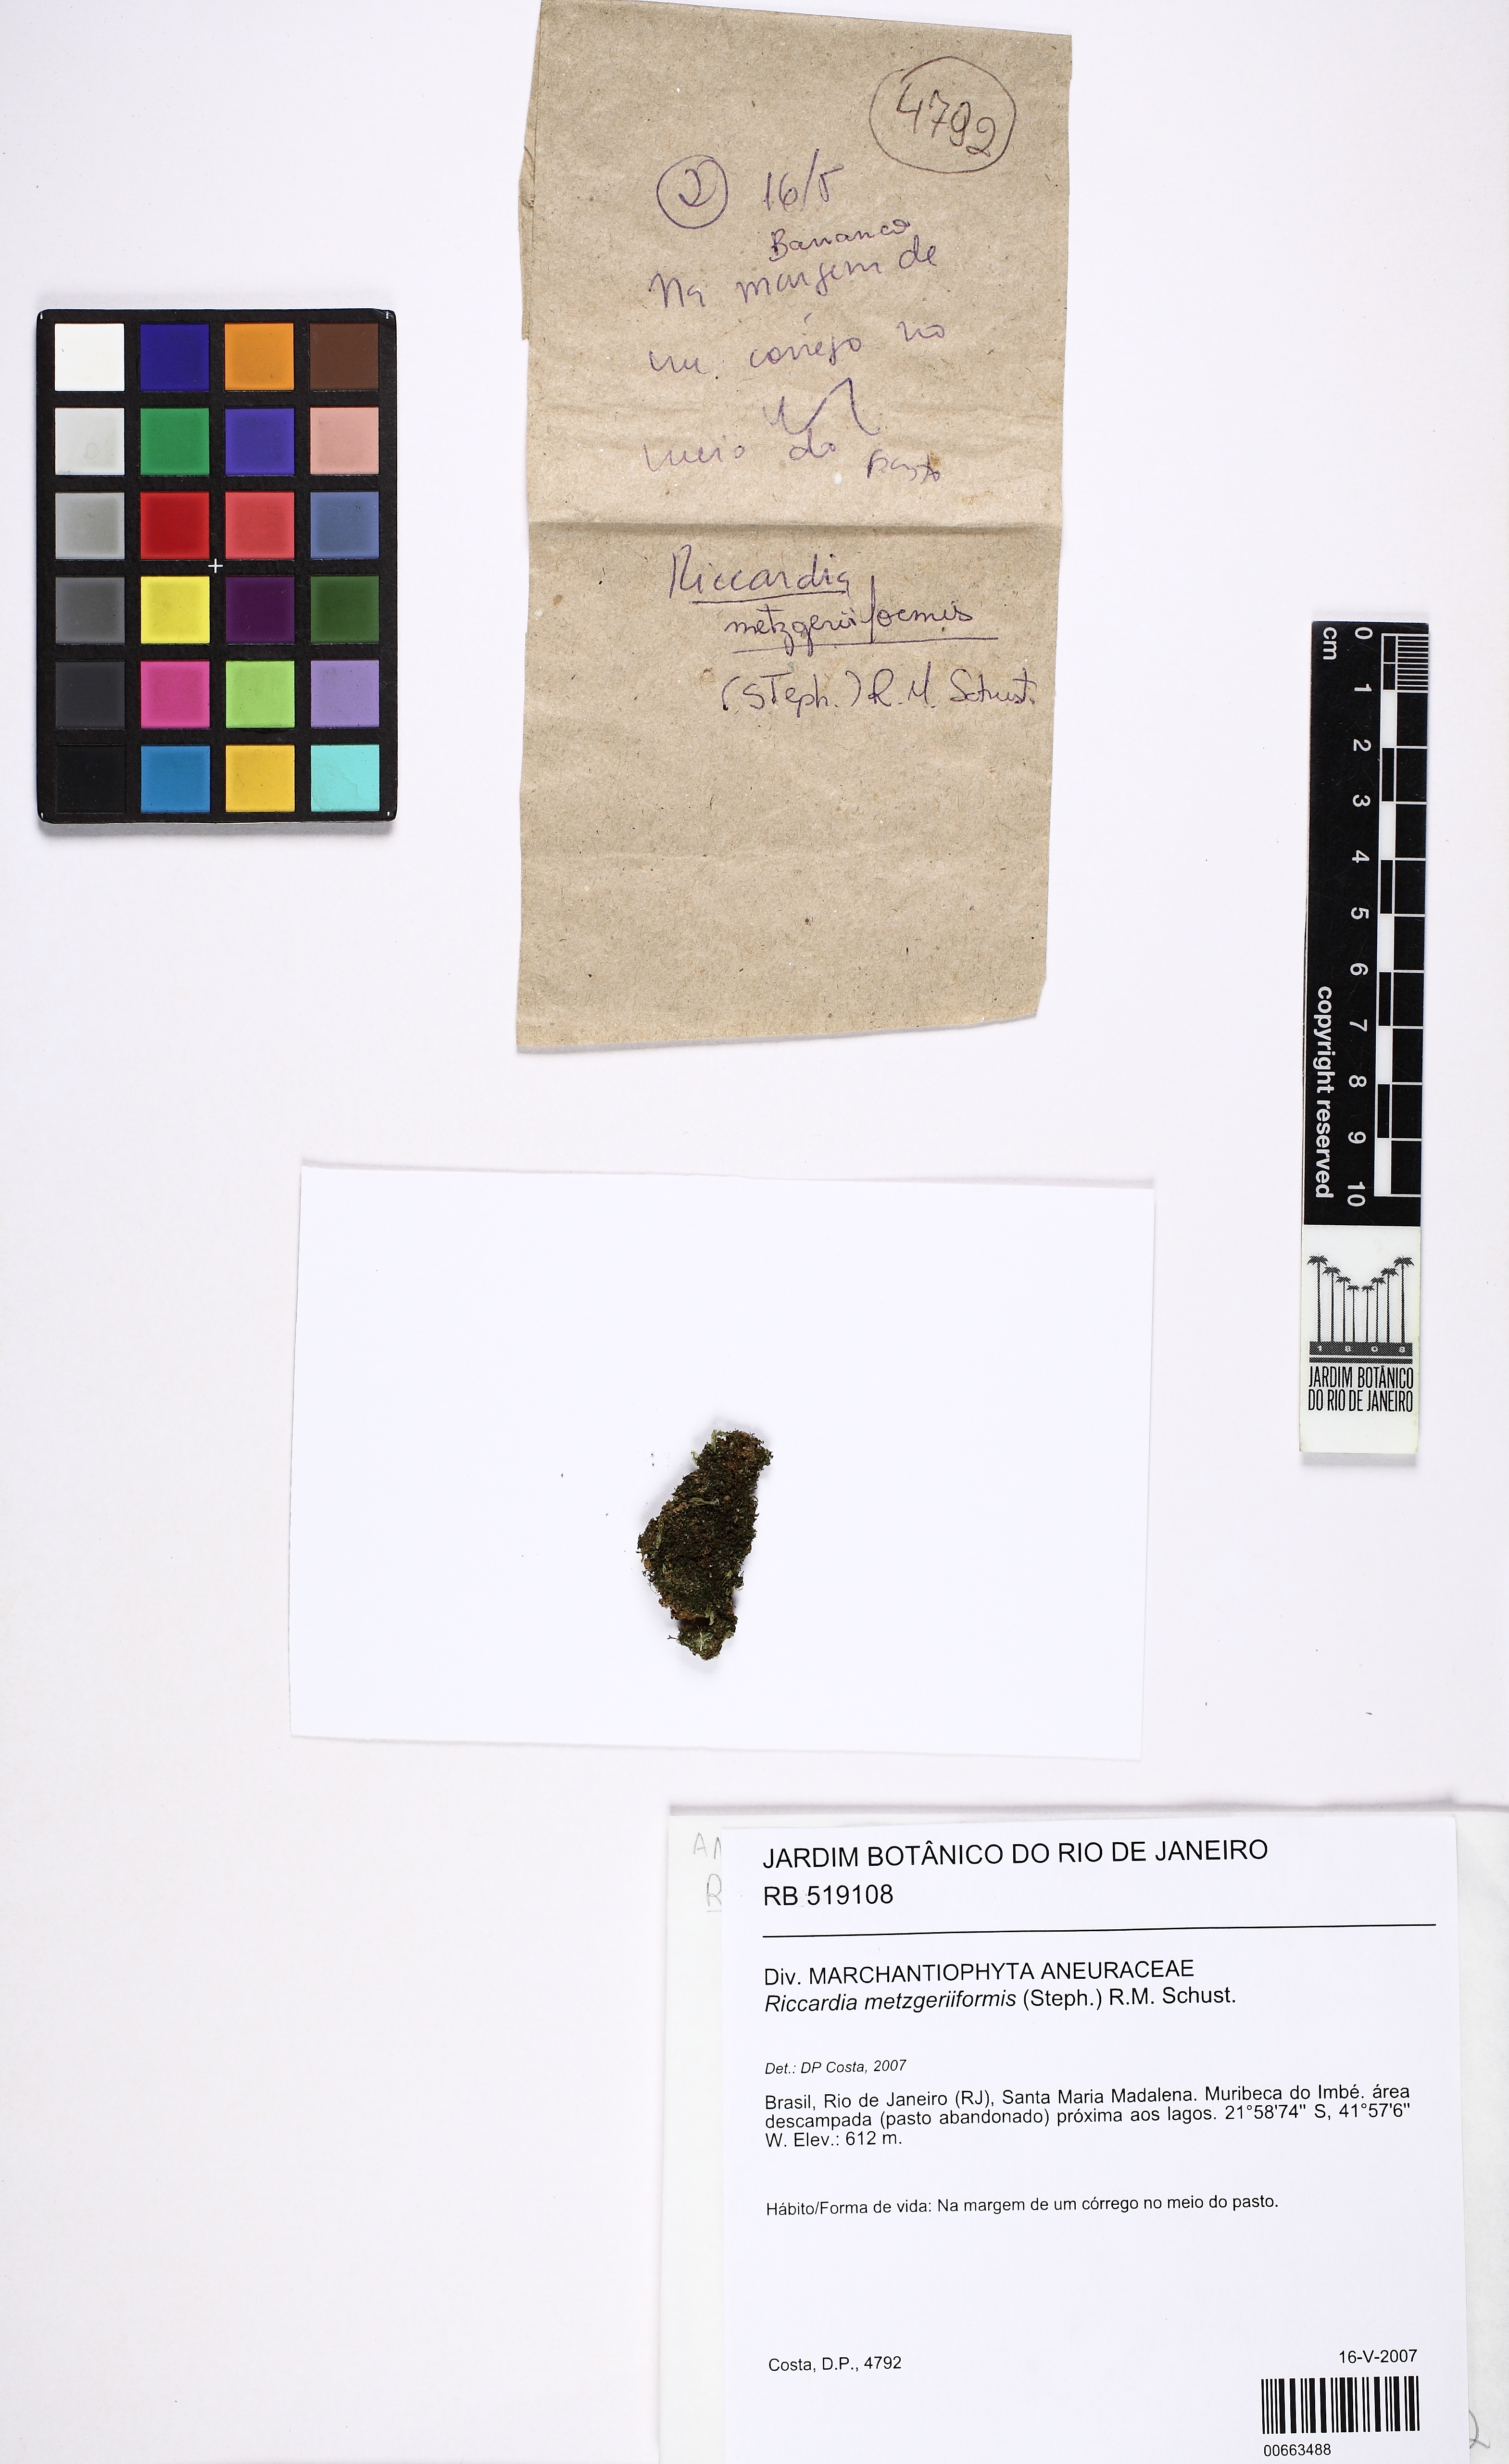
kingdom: Plantae
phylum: Marchantiophyta
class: Jungermanniopsida
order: Metzgeriales
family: Aneuraceae
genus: Riccardia
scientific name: Riccardia digitiloba
